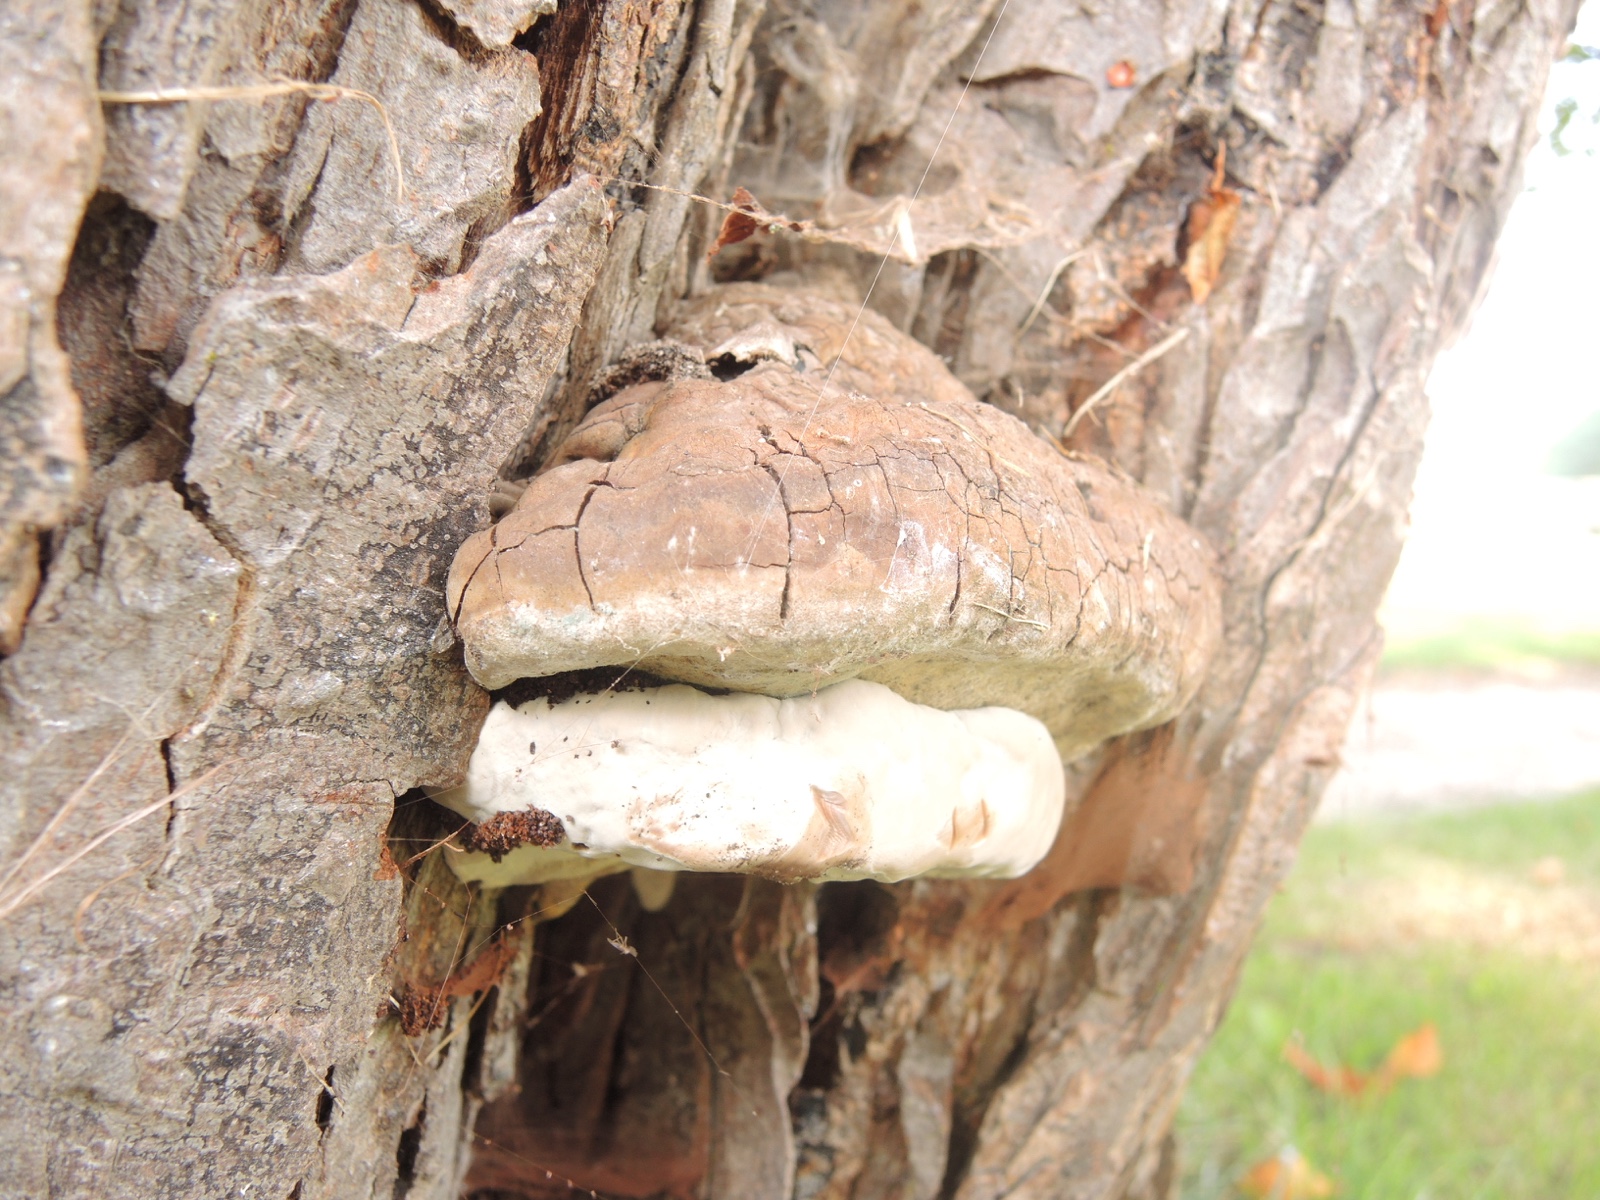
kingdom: Fungi
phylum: Basidiomycota
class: Agaricomycetes
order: Polyporales
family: Polyporaceae
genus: Ganoderma
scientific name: Ganoderma adspersum
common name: grov lakporesvamp
